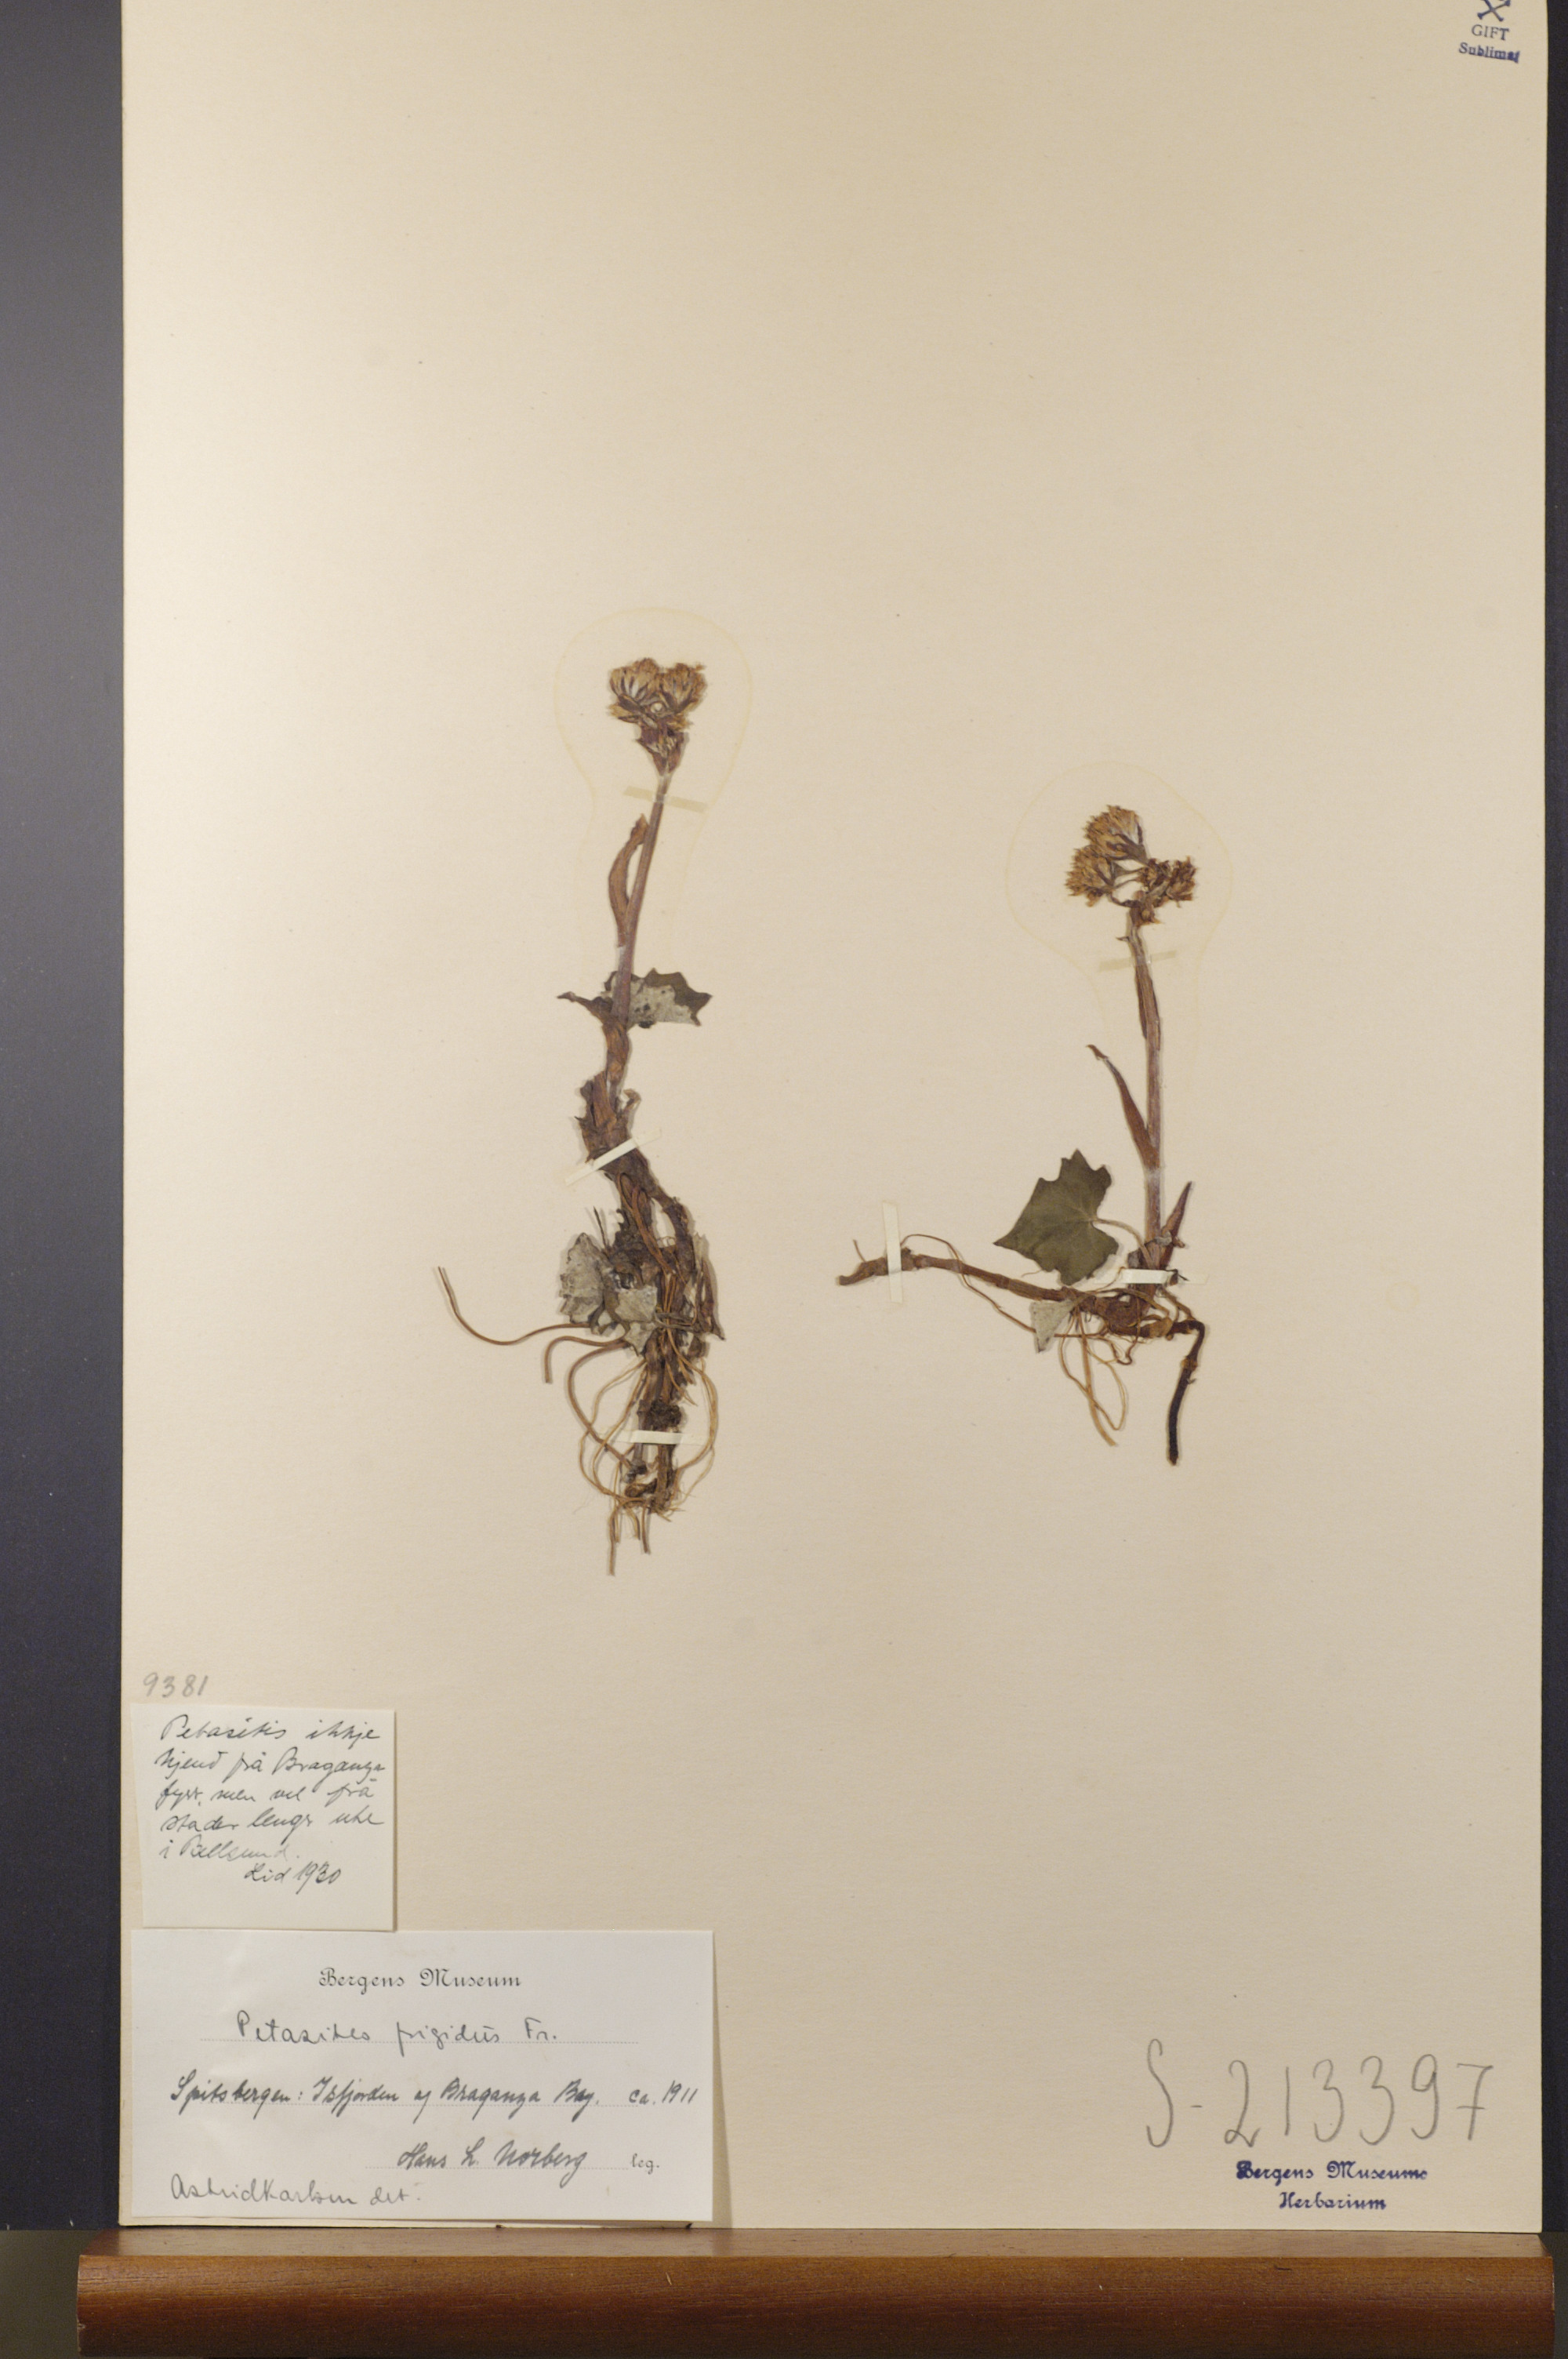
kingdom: Plantae
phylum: Tracheophyta
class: Magnoliopsida
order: Asterales
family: Asteraceae
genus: Petasites
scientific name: Petasites frigidus
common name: Arctic butterbur
